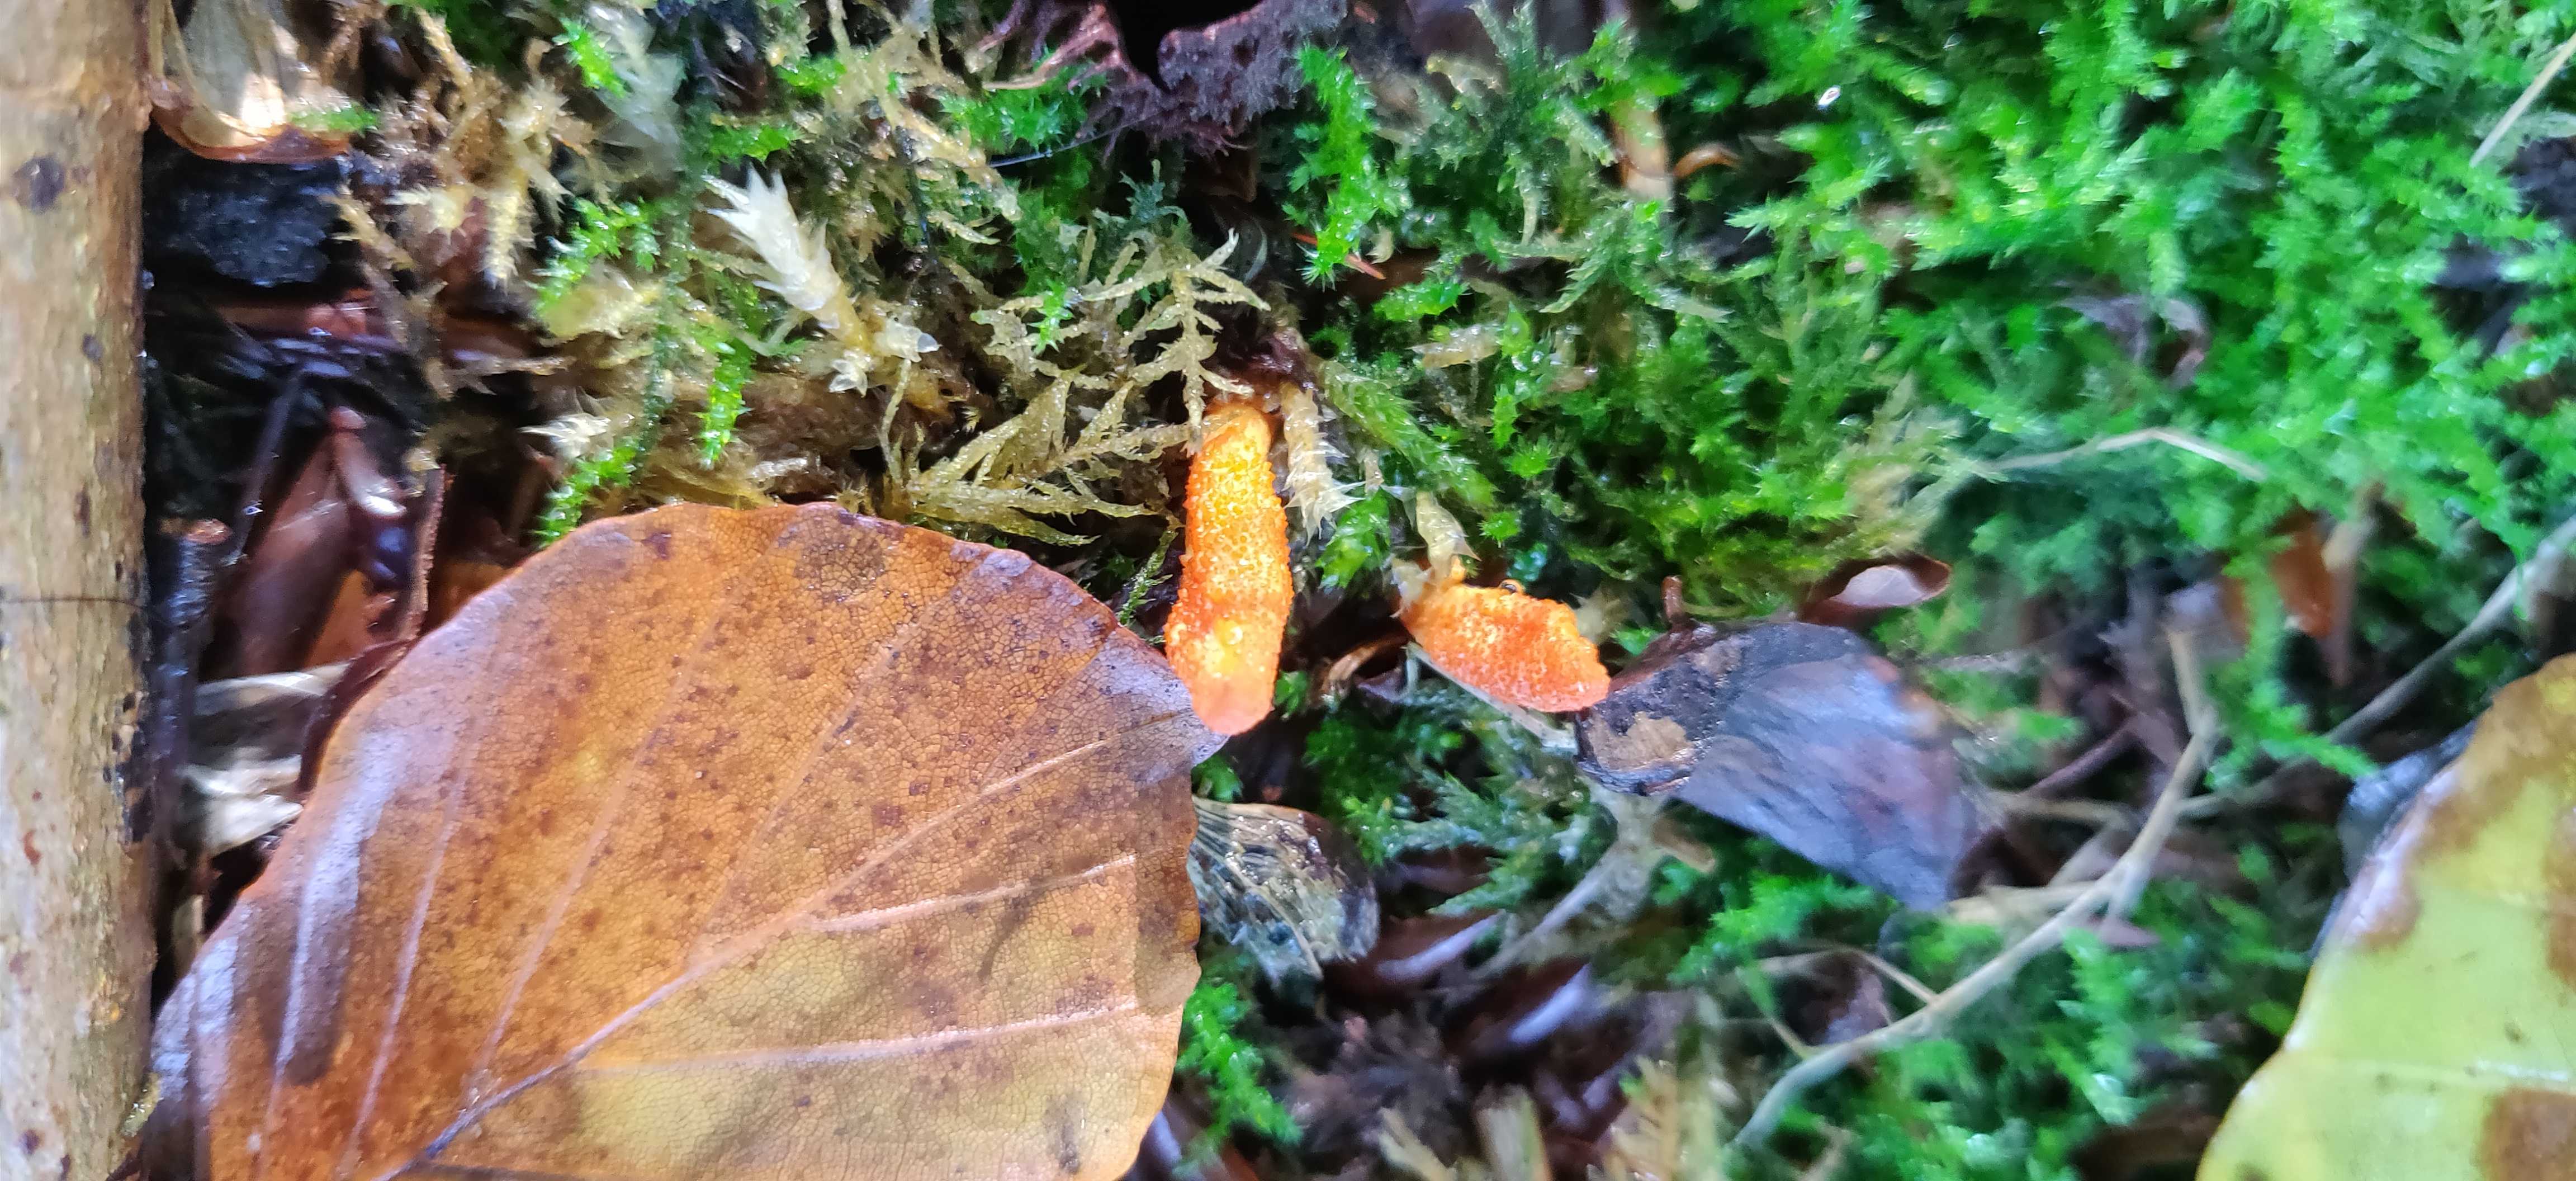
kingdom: Fungi
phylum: Ascomycota
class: Sordariomycetes
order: Hypocreales
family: Cordycipitaceae
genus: Cordyceps
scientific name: Cordyceps militaris
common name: puppe-snyltekølle
